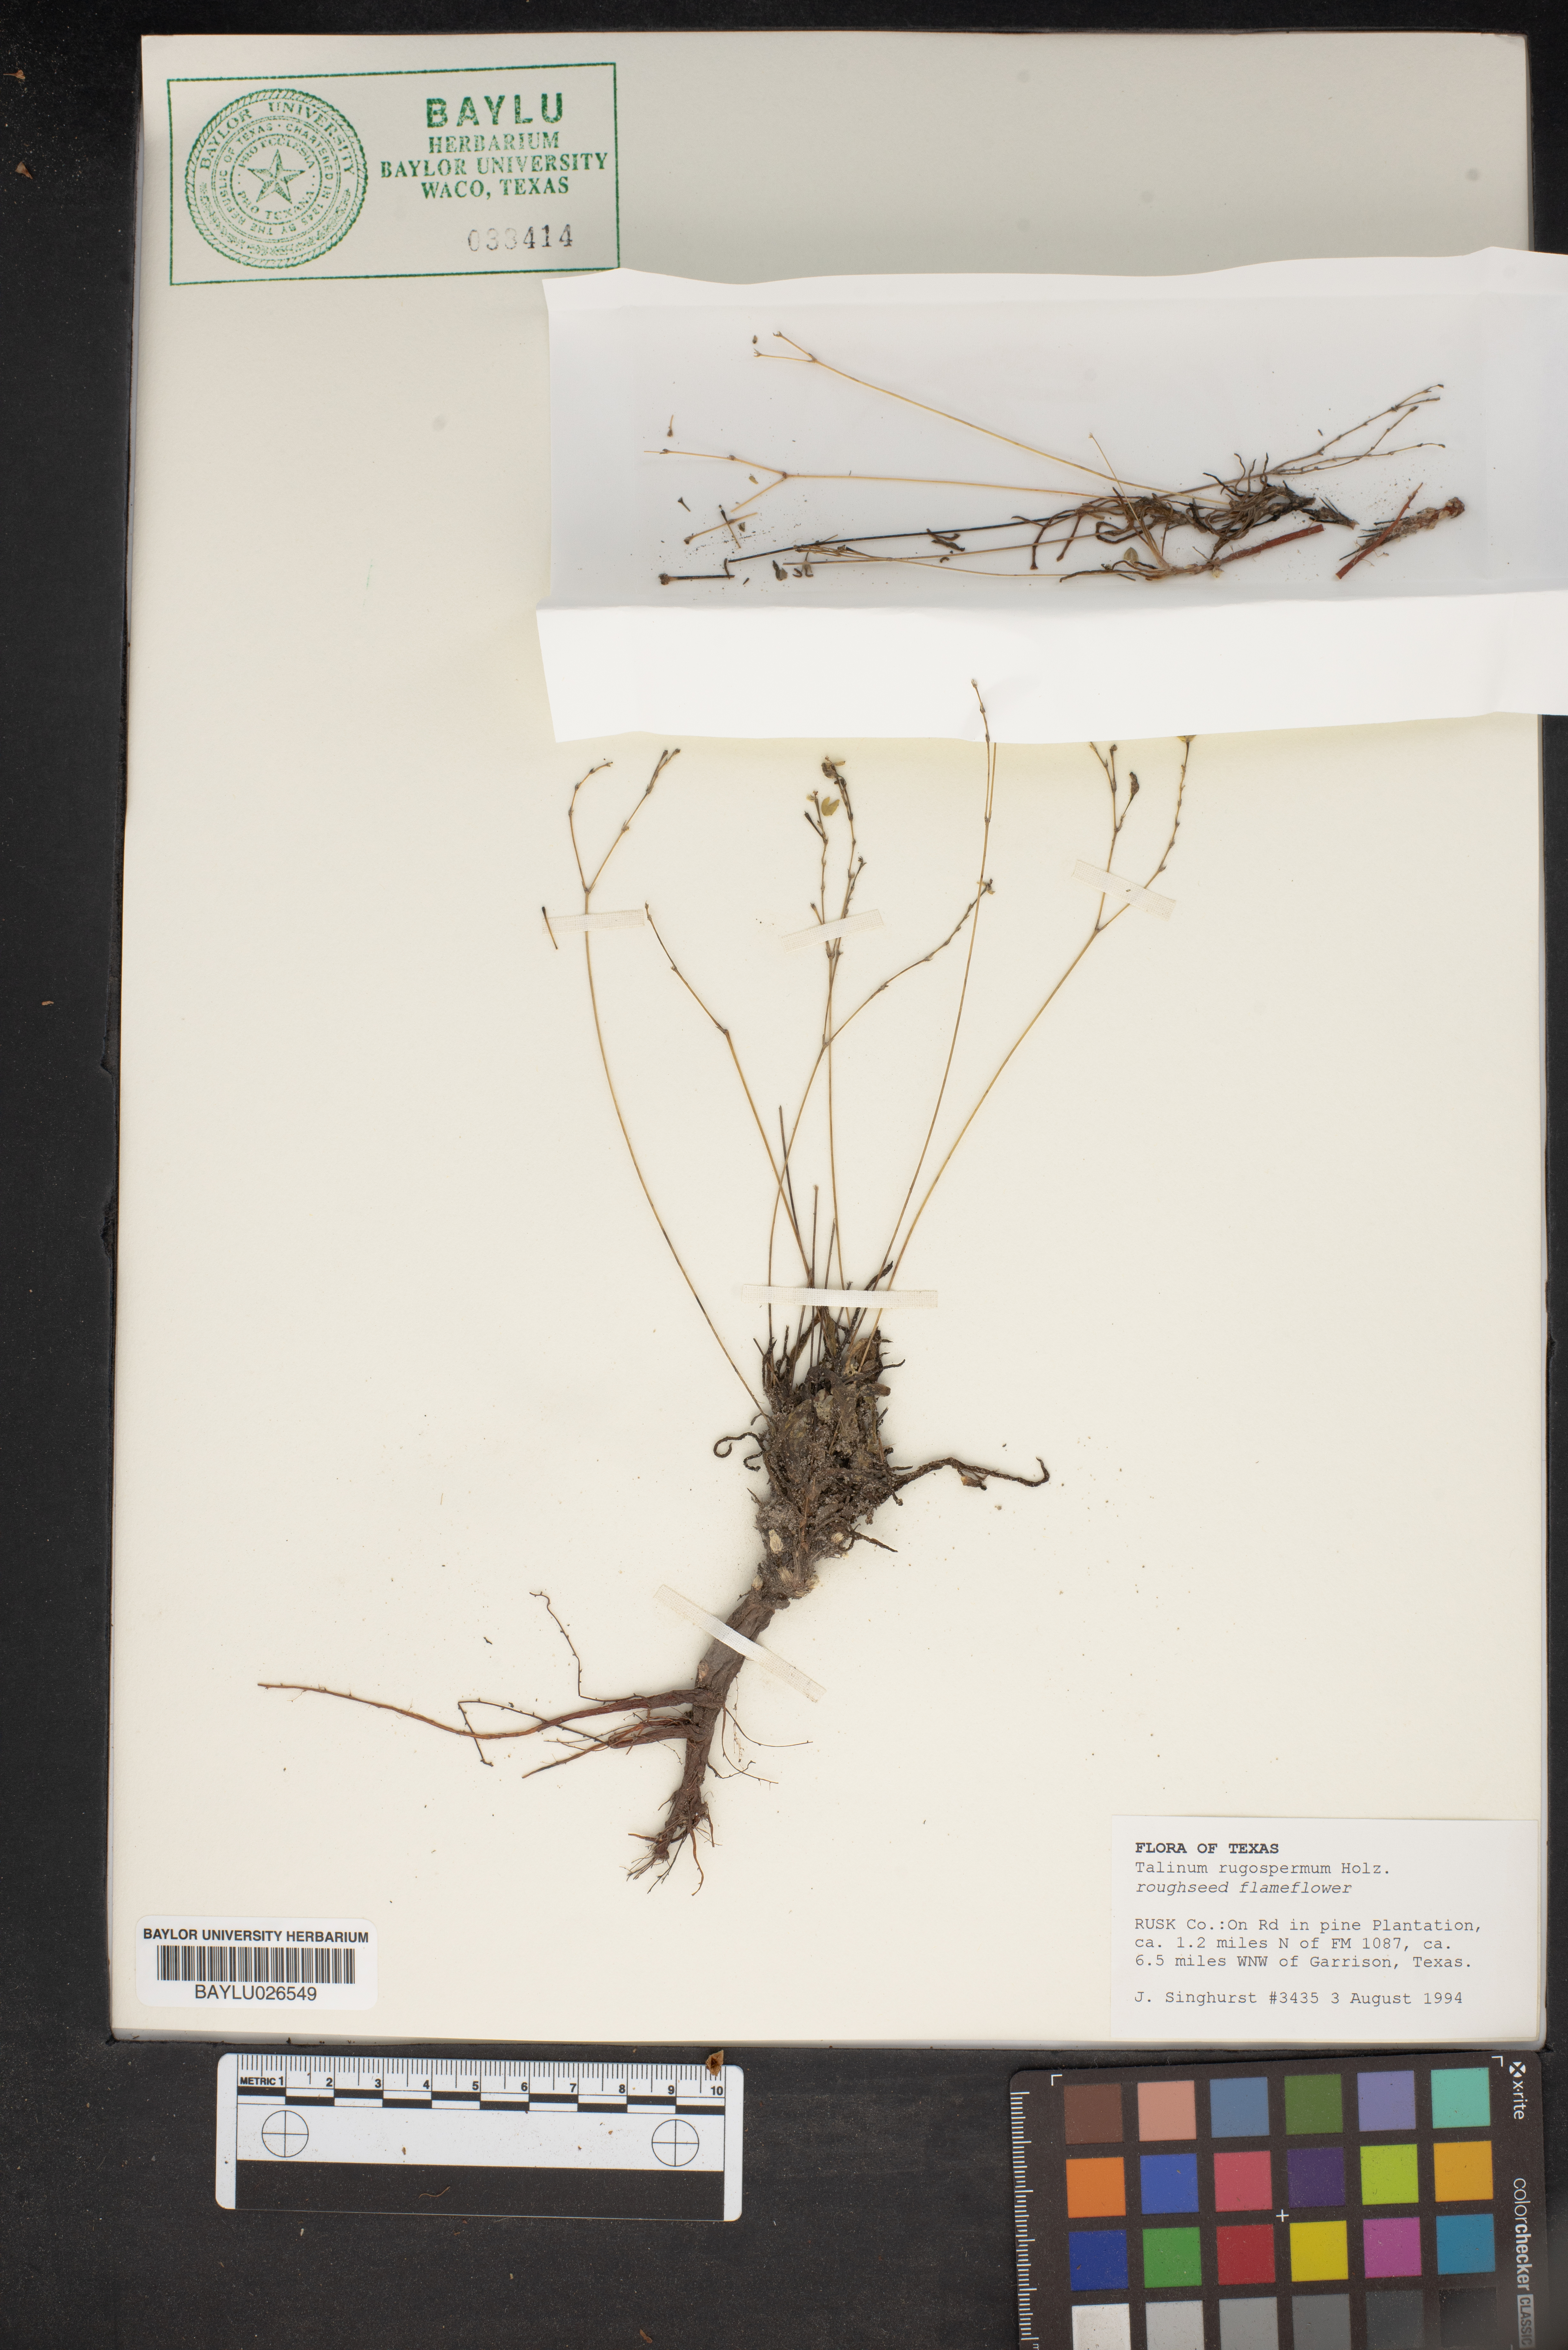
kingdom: Plantae
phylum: Tracheophyta
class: Magnoliopsida
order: Caryophyllales
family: Montiaceae
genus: Phemeranthus
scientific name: Phemeranthus rugospermus
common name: Prairie fameflower
